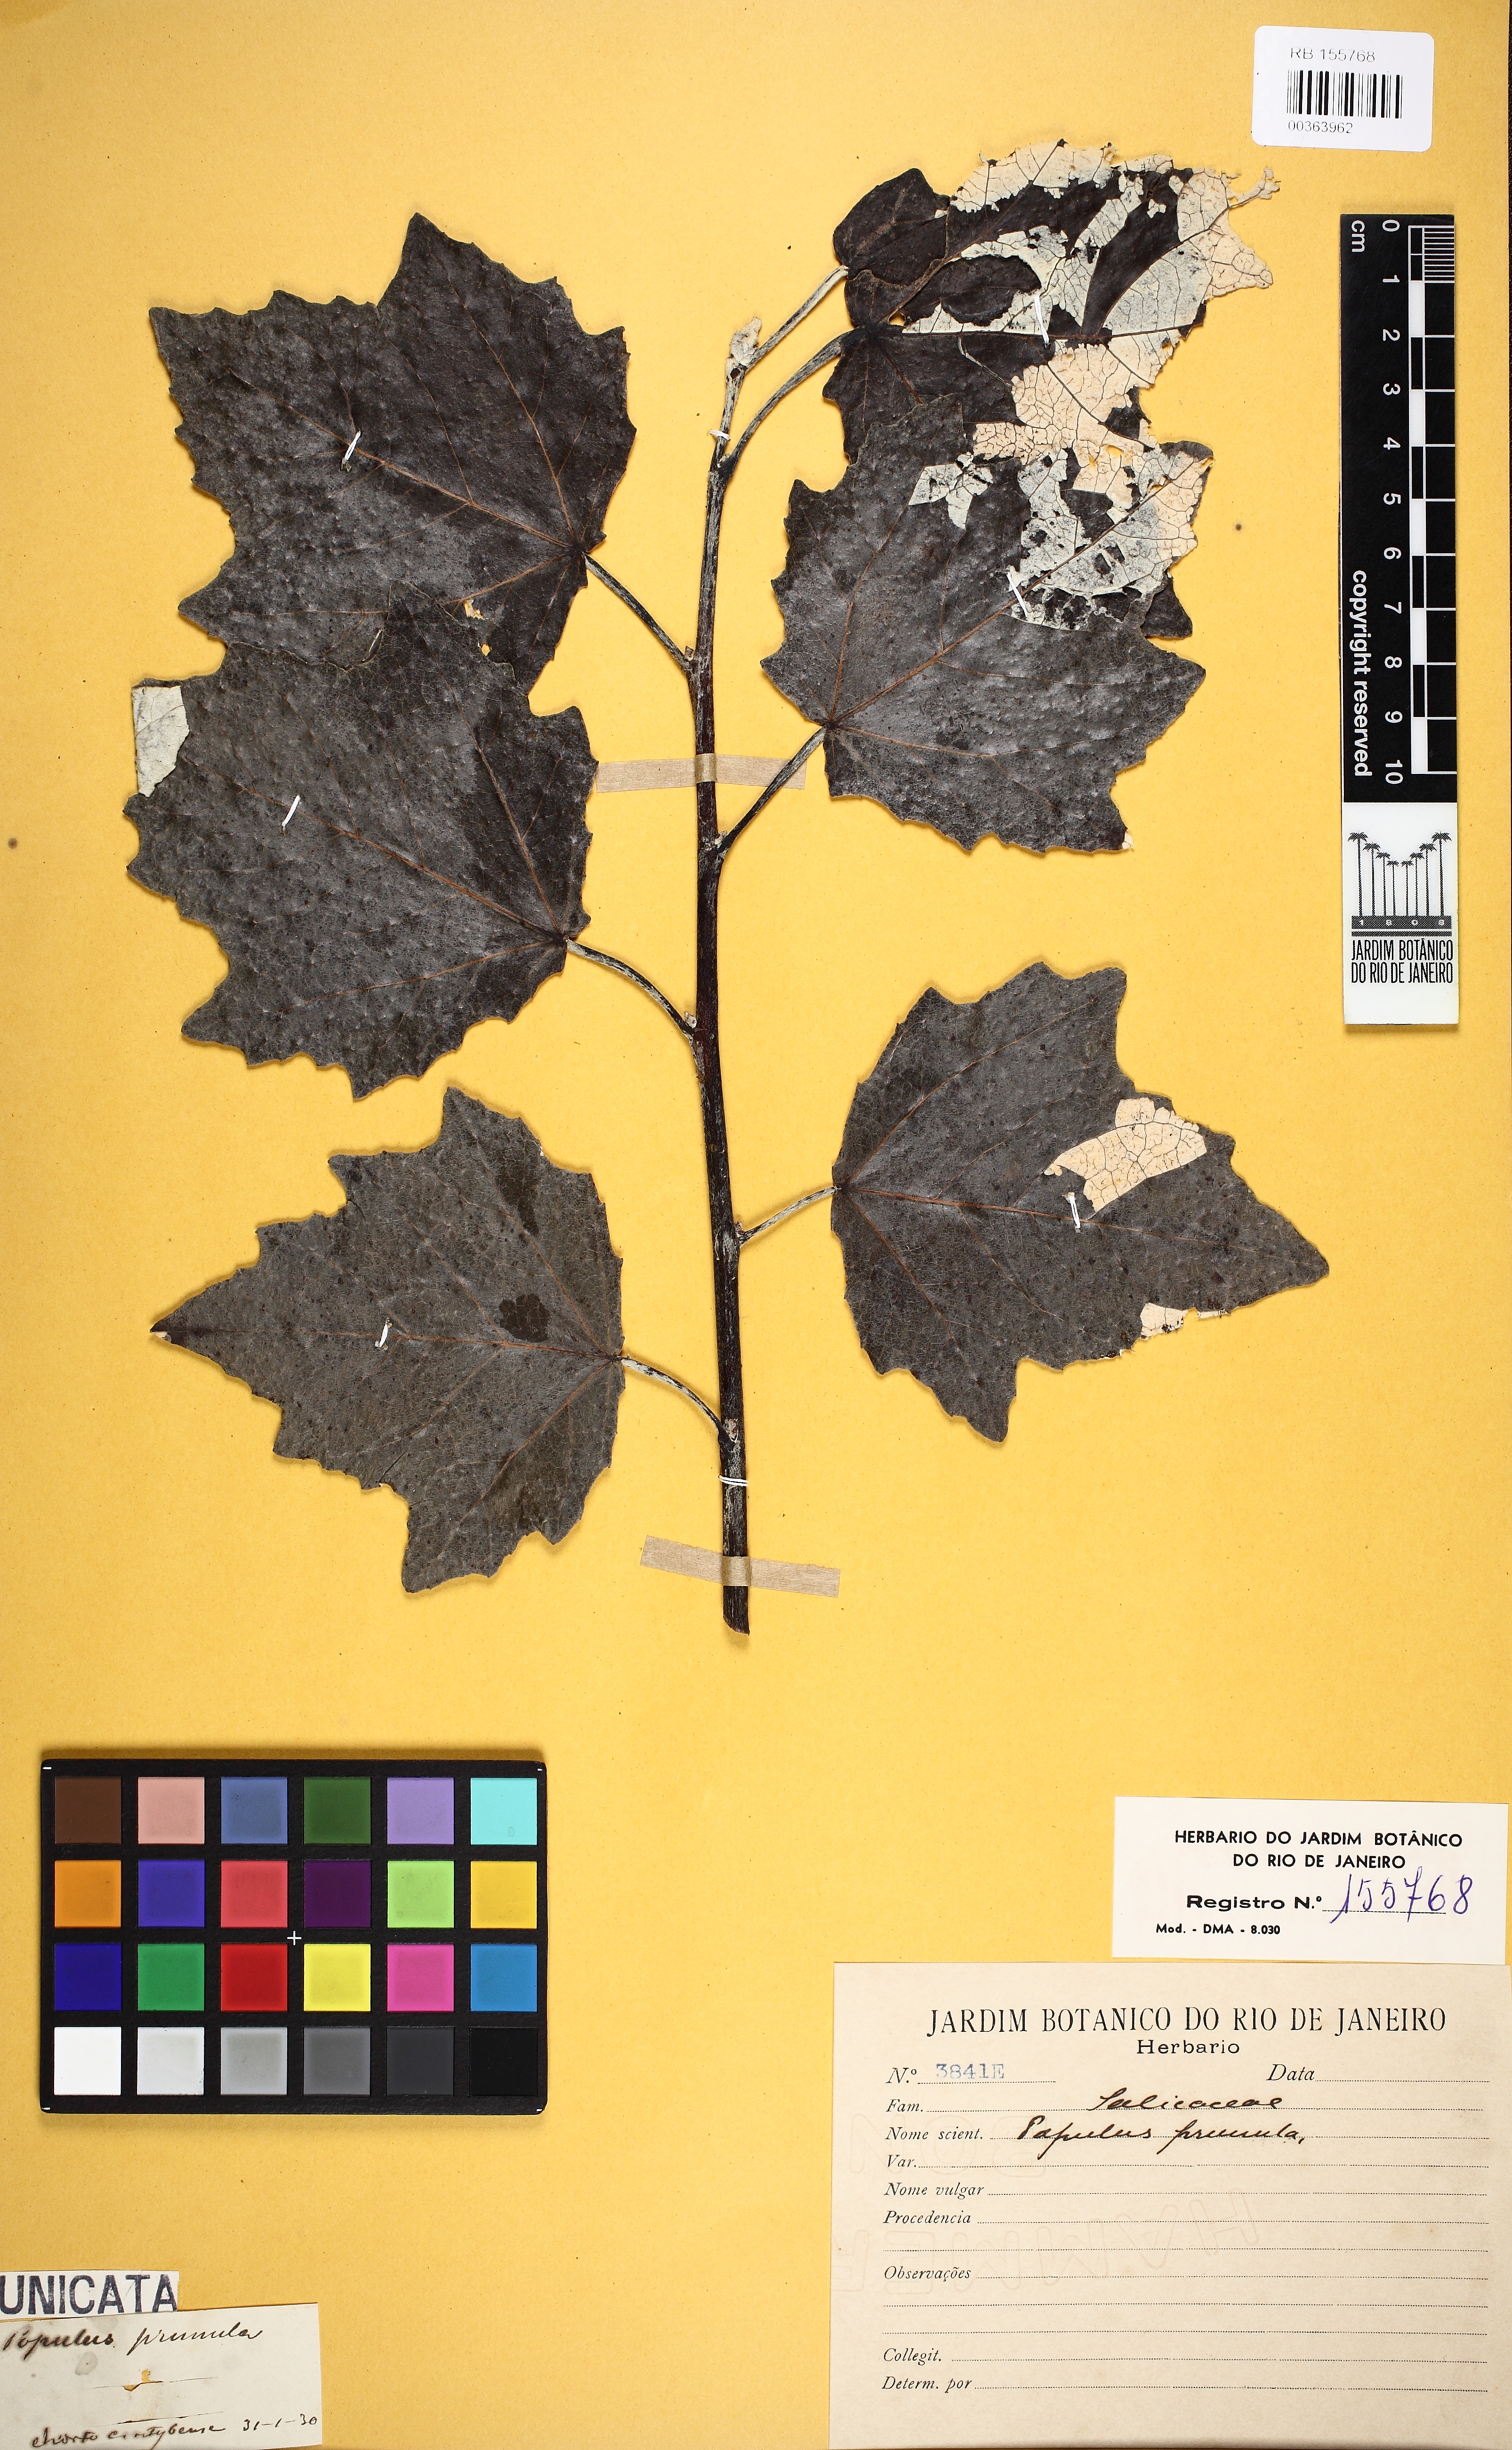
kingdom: Plantae
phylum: Tracheophyta
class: Magnoliopsida
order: Malpighiales
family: Salicaceae
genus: Populus
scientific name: Populus
